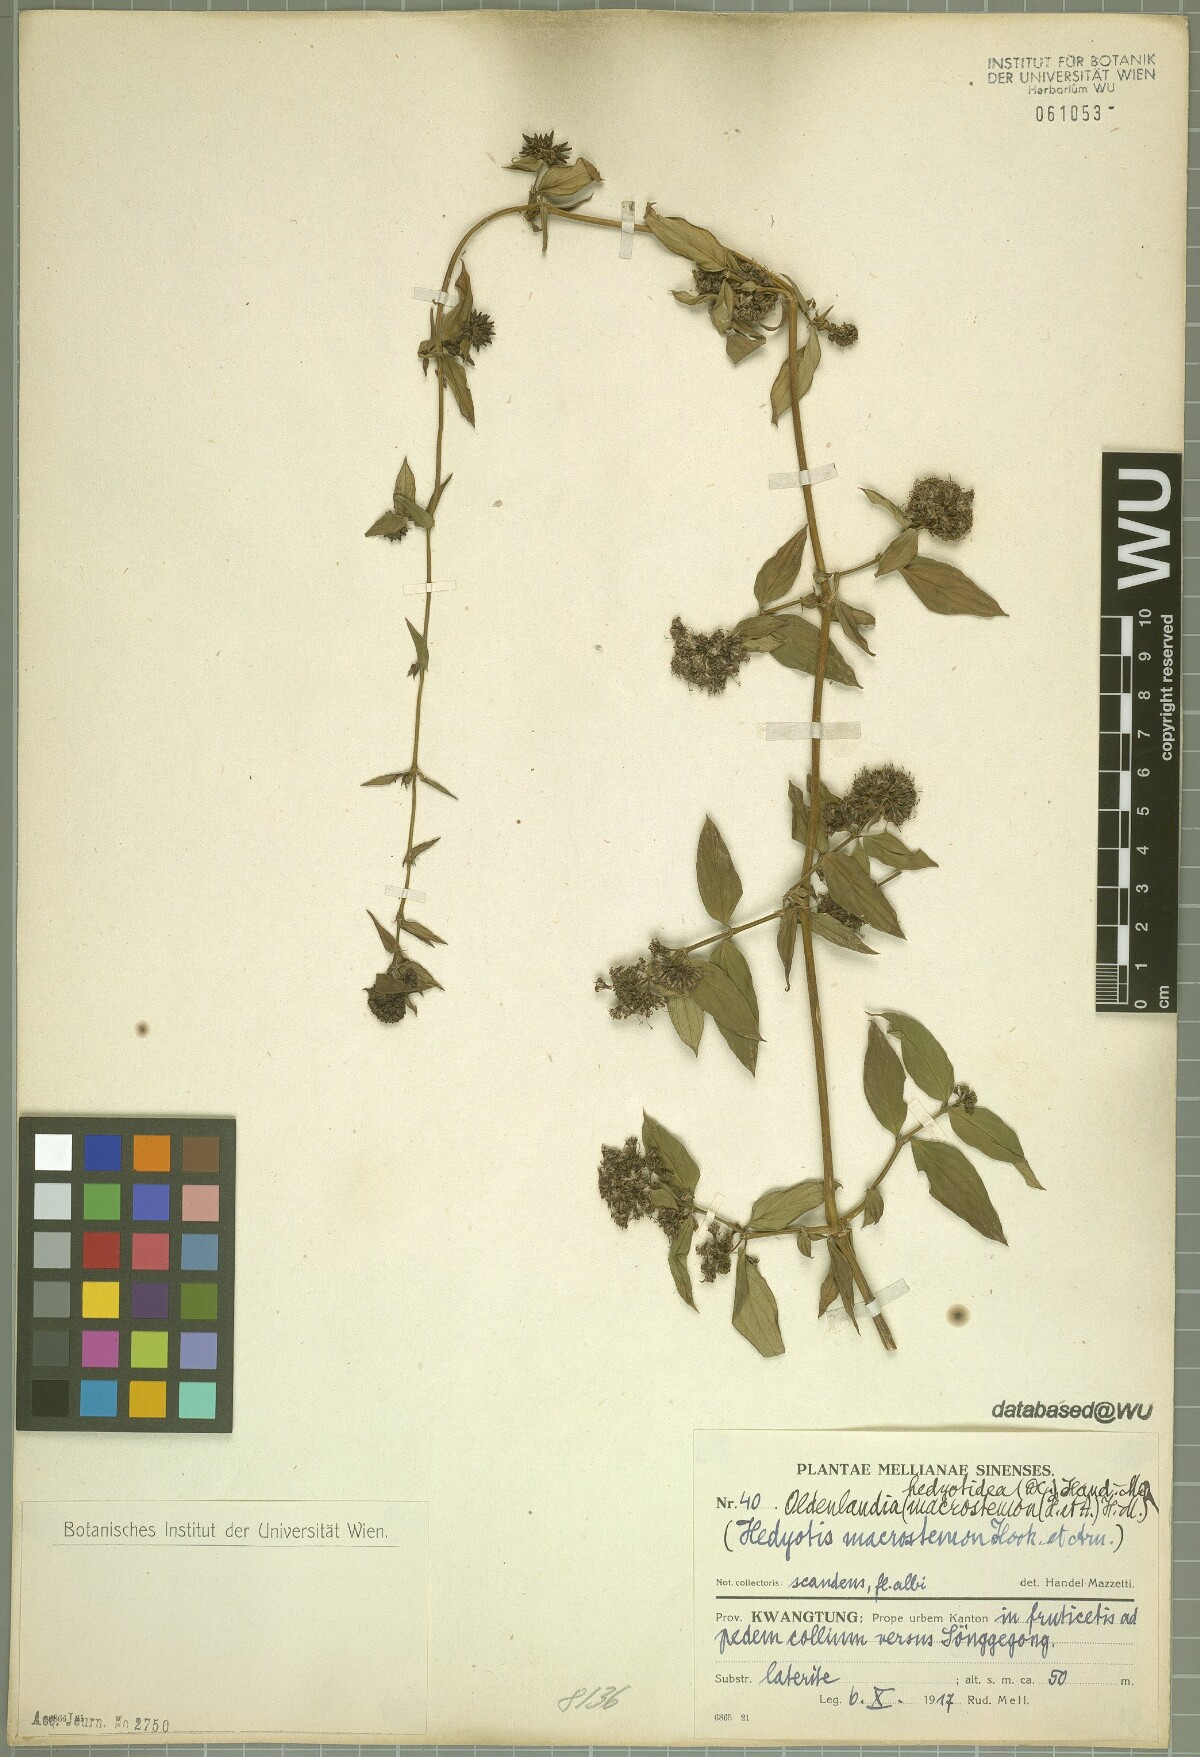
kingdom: Plantae
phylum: Tracheophyta
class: Magnoliopsida
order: Gentianales
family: Rubiaceae
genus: Dimetia
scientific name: Dimetia hedyotidea
